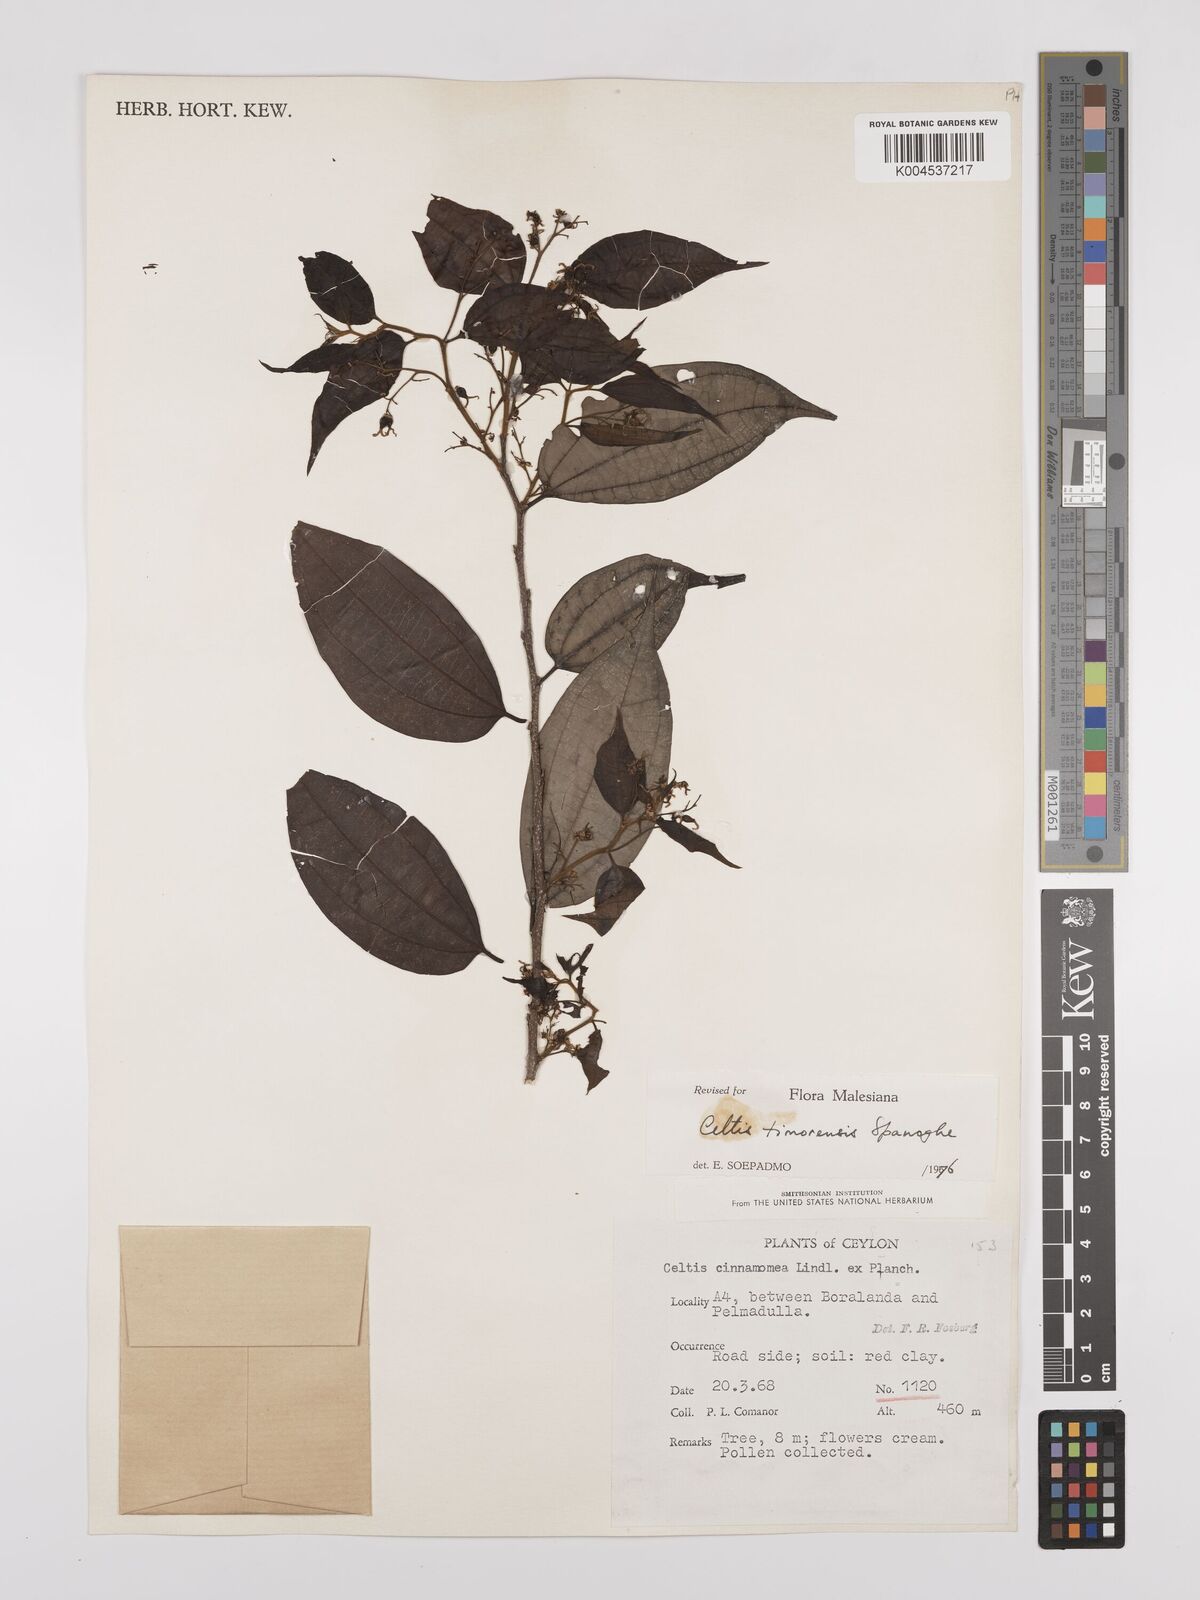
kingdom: Plantae
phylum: Tracheophyta
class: Magnoliopsida
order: Rosales
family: Cannabaceae
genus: Celtis
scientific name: Celtis timorensis
